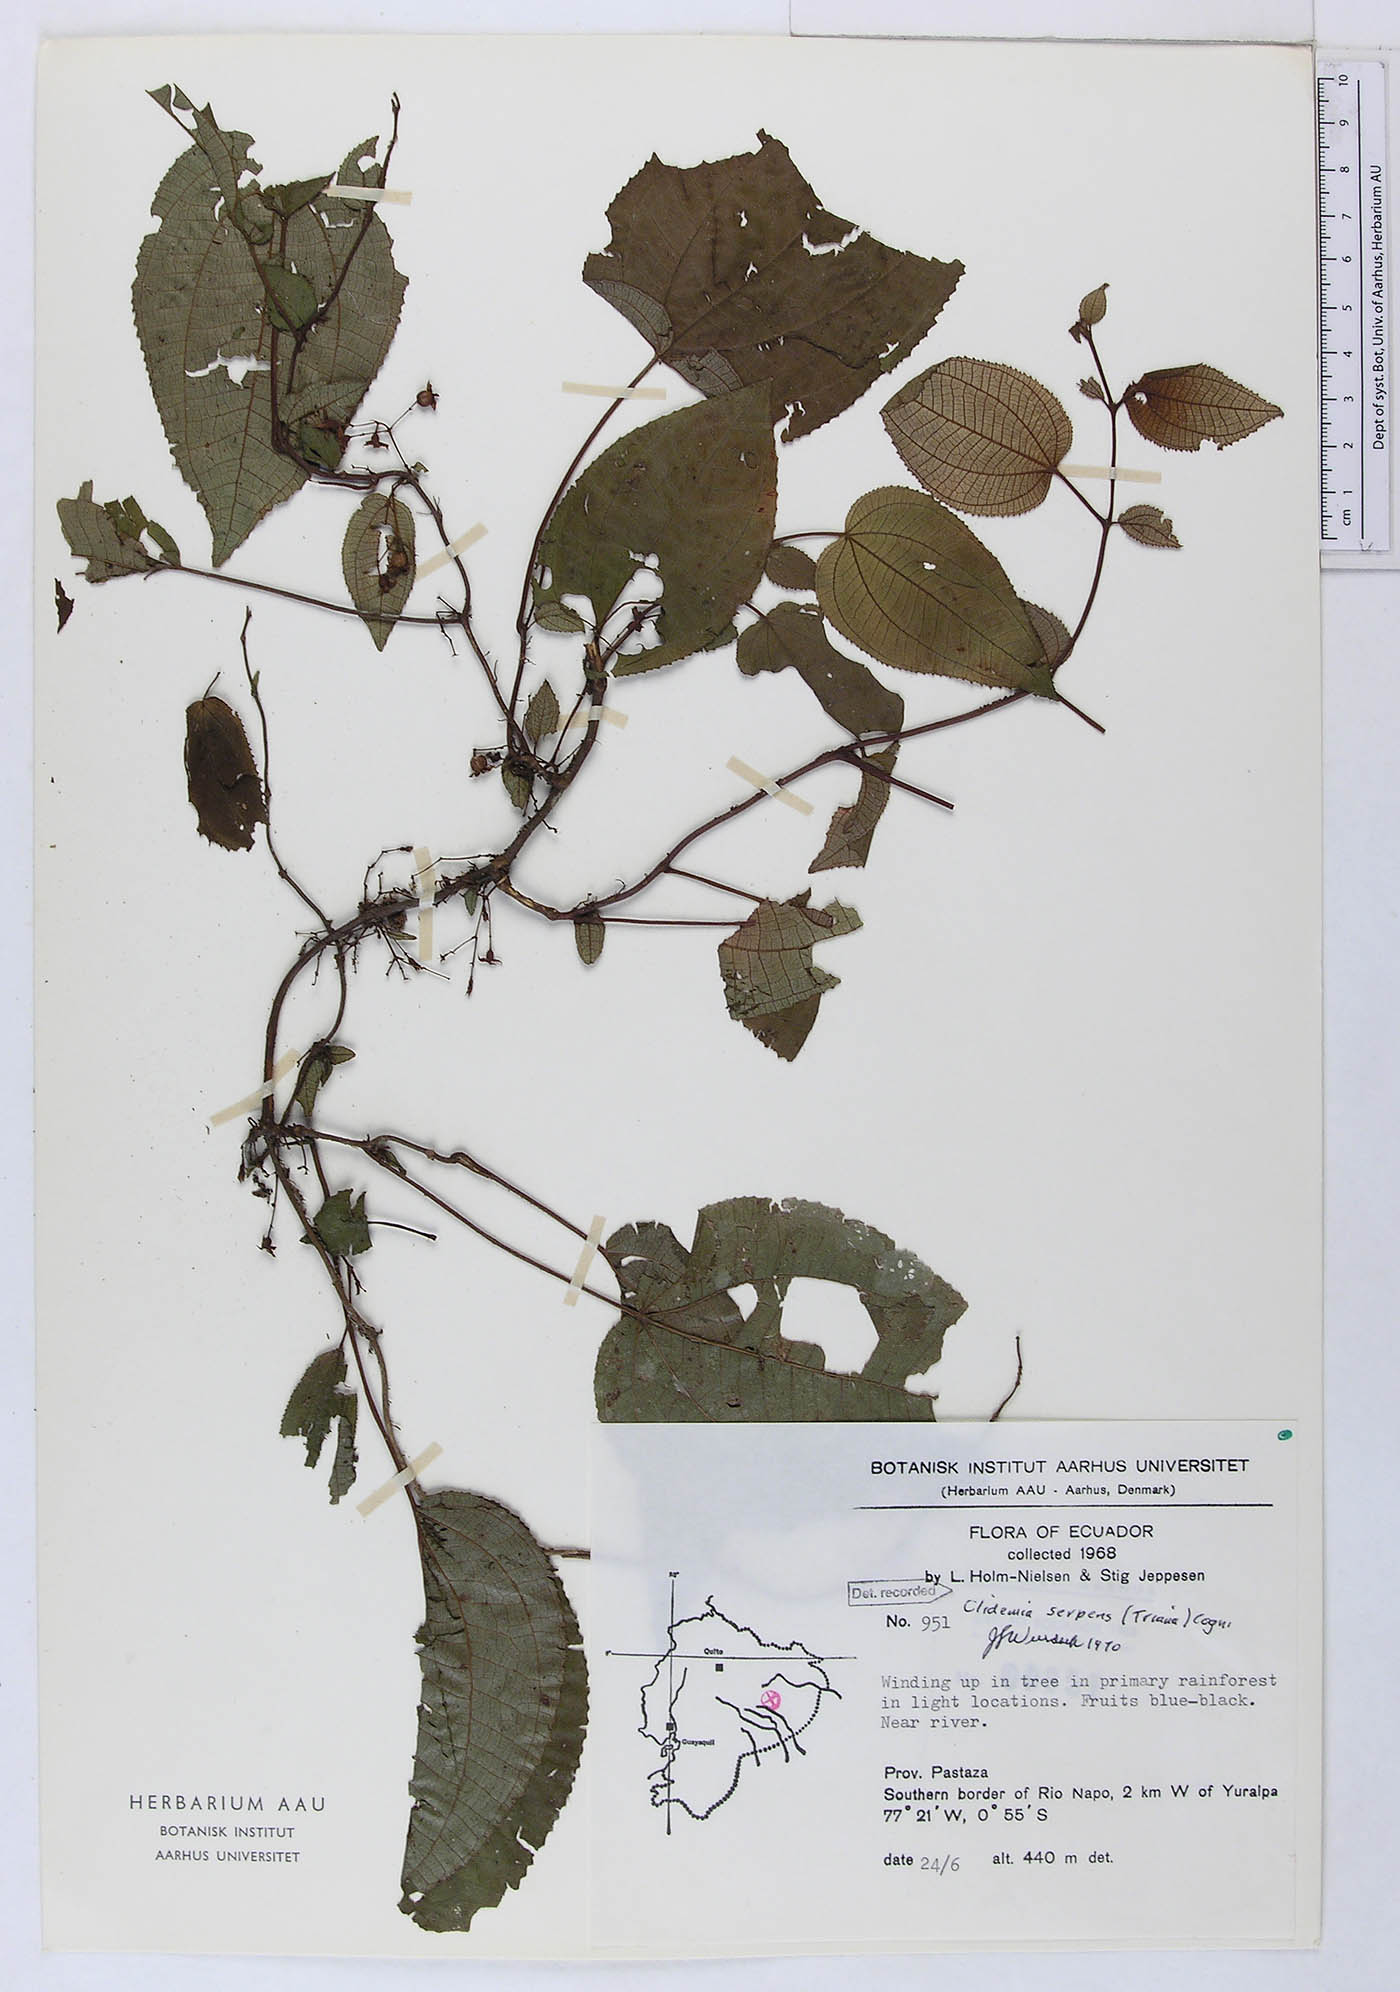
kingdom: Plantae
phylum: Tracheophyta
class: Magnoliopsida
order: Myrtales
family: Melastomataceae
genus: Miconia
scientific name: Miconia serpens
